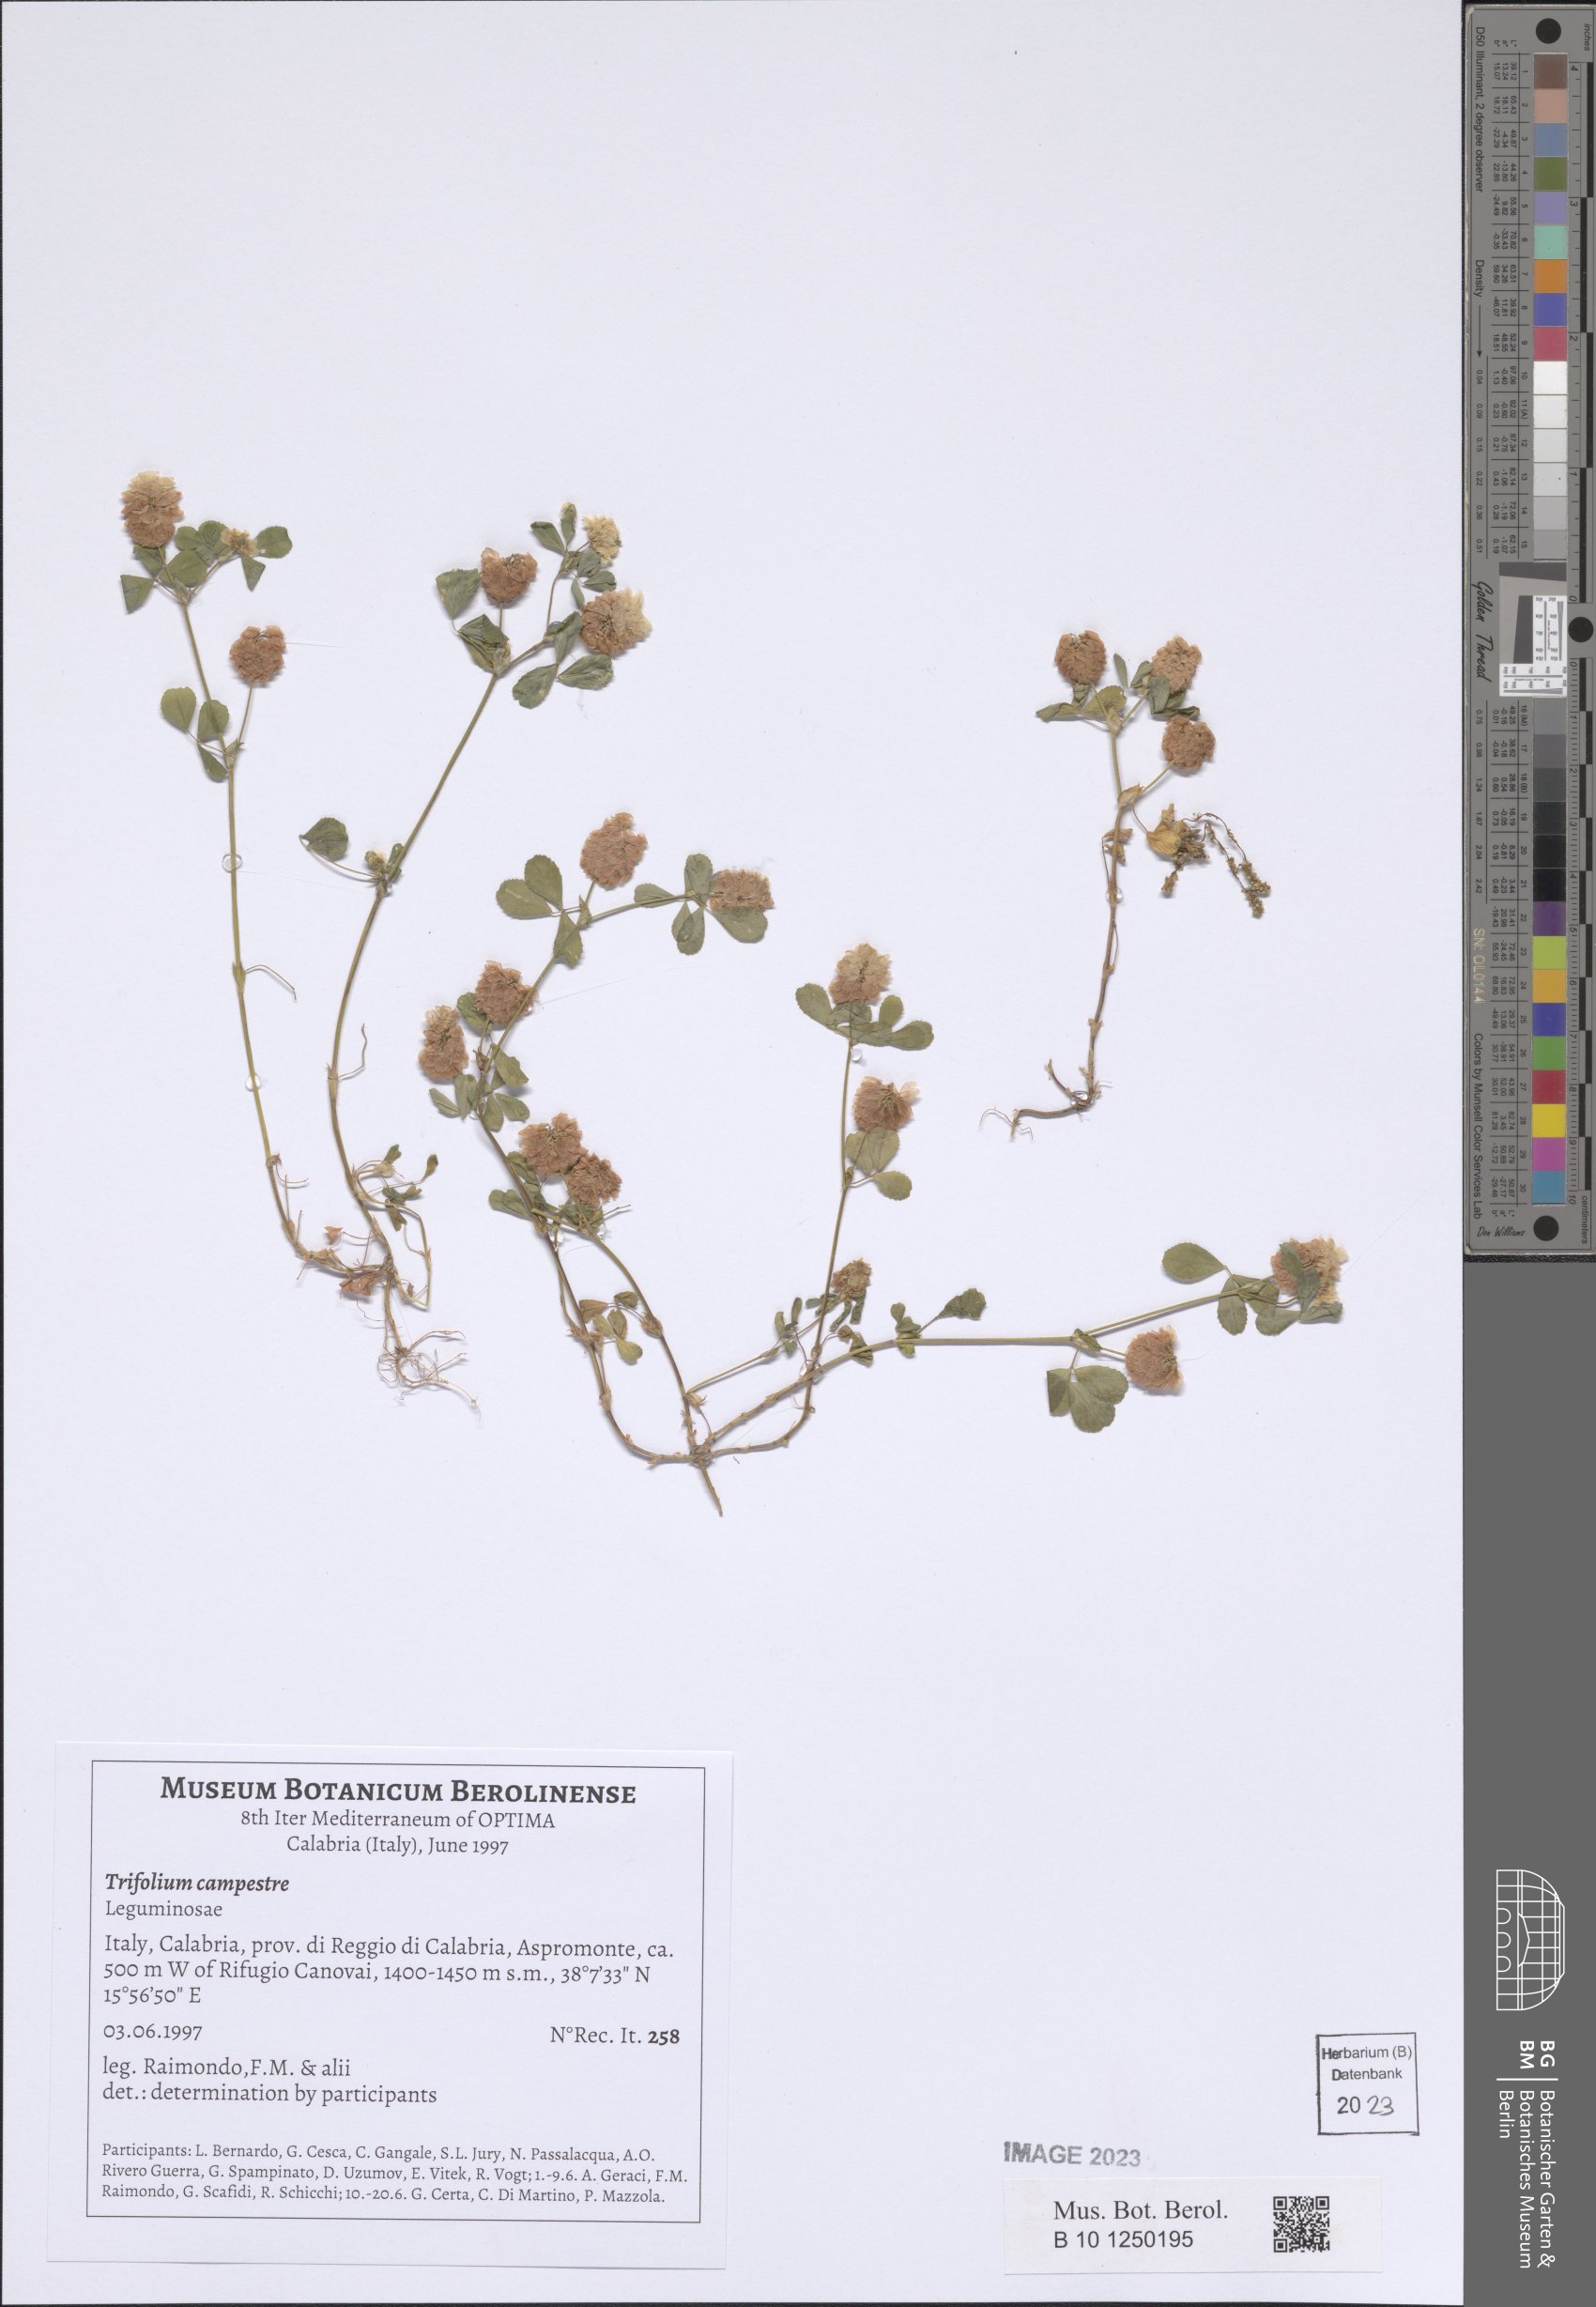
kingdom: Plantae
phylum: Tracheophyta
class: Magnoliopsida
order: Fabales
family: Fabaceae
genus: Trifolium
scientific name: Trifolium campestre
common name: Field clover
